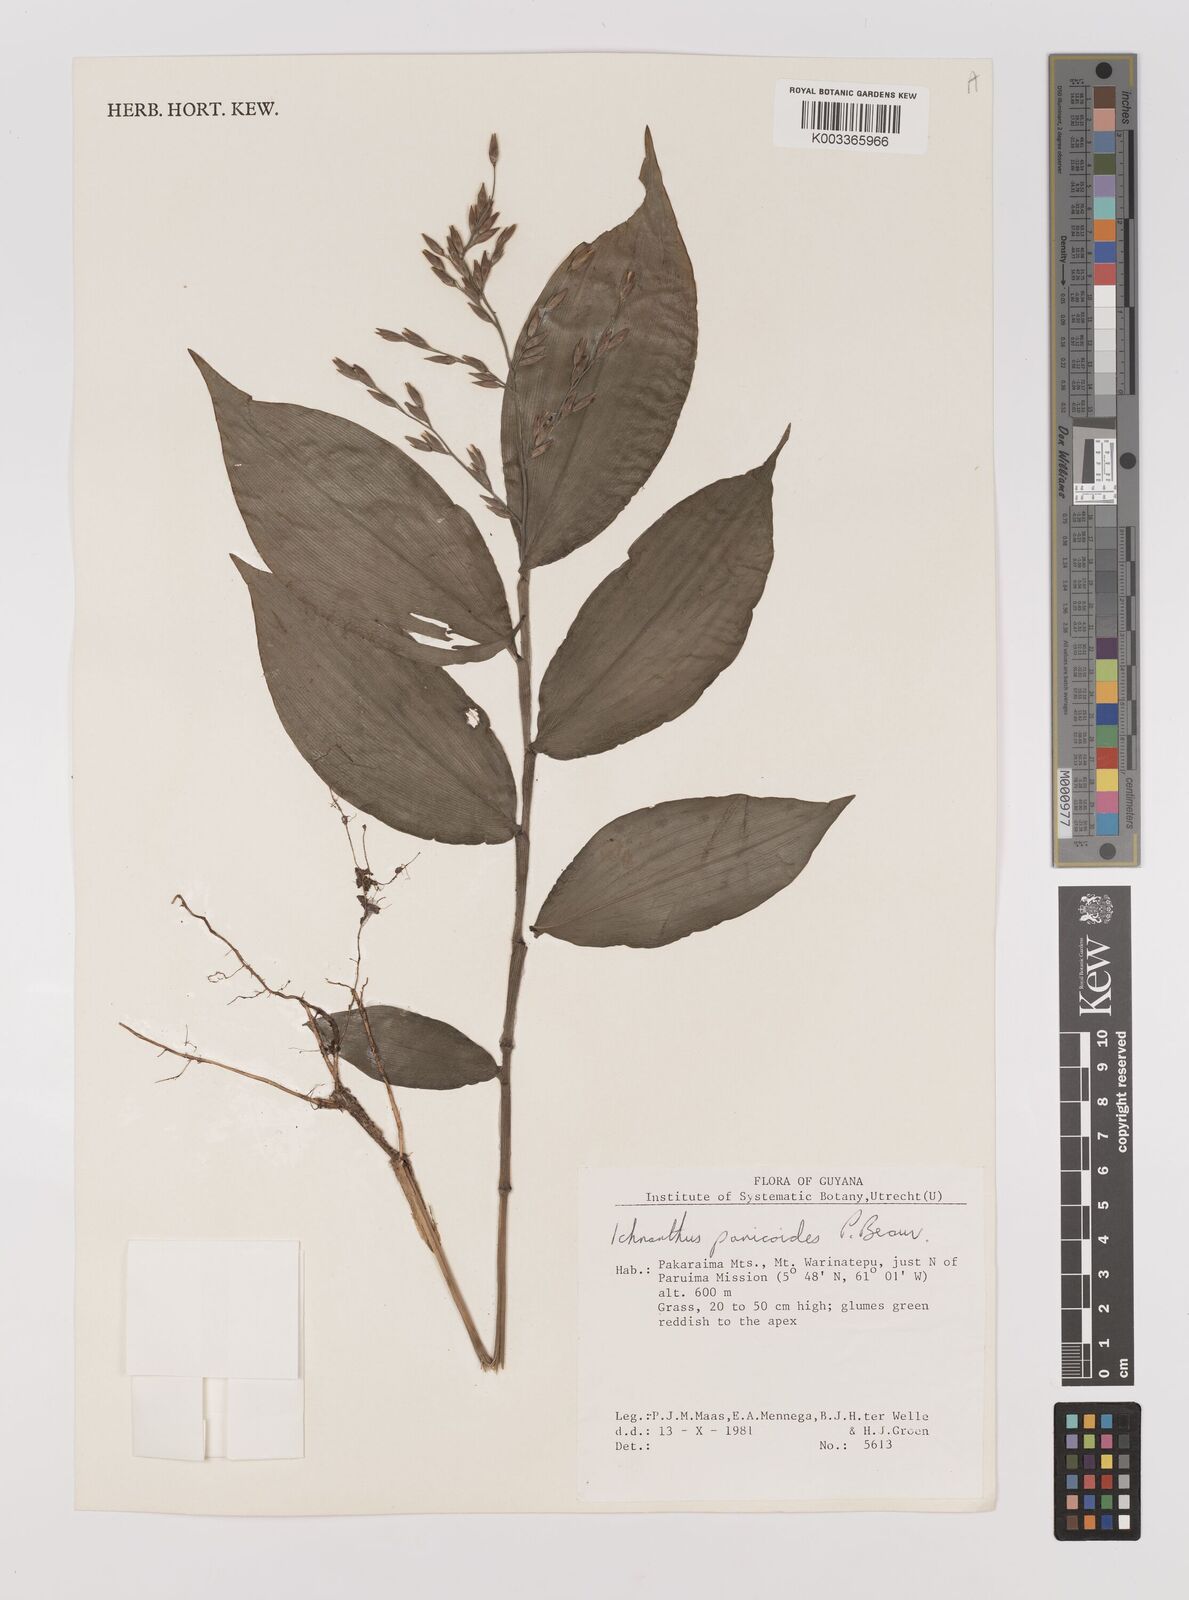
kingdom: Plantae
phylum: Tracheophyta
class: Liliopsida
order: Poales
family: Poaceae
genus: Ichnanthus
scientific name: Ichnanthus panicoides
